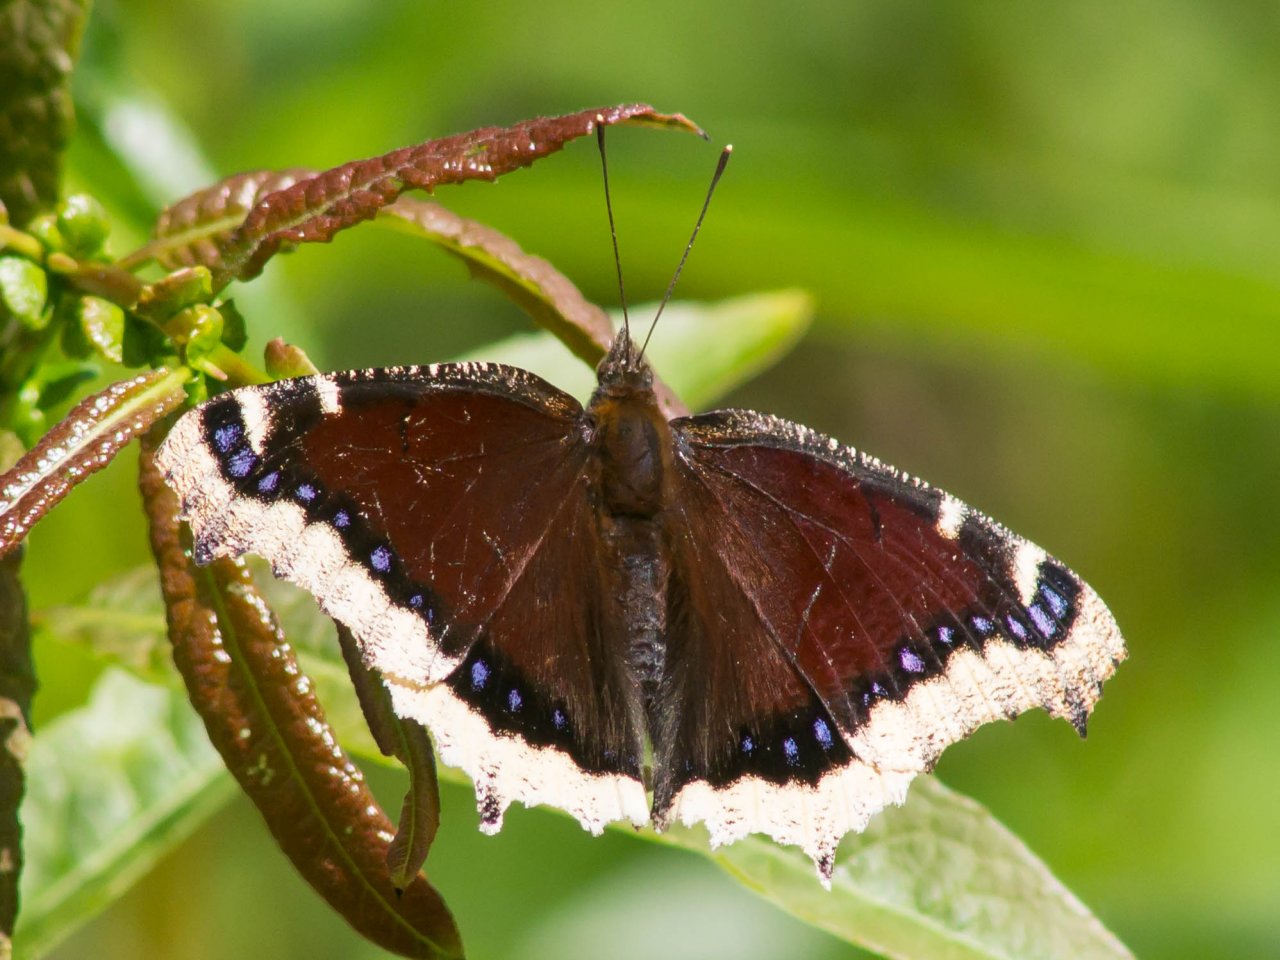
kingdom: Animalia
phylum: Arthropoda
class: Insecta
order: Lepidoptera
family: Nymphalidae
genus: Nymphalis
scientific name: Nymphalis antiopa
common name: Mourning Cloak
